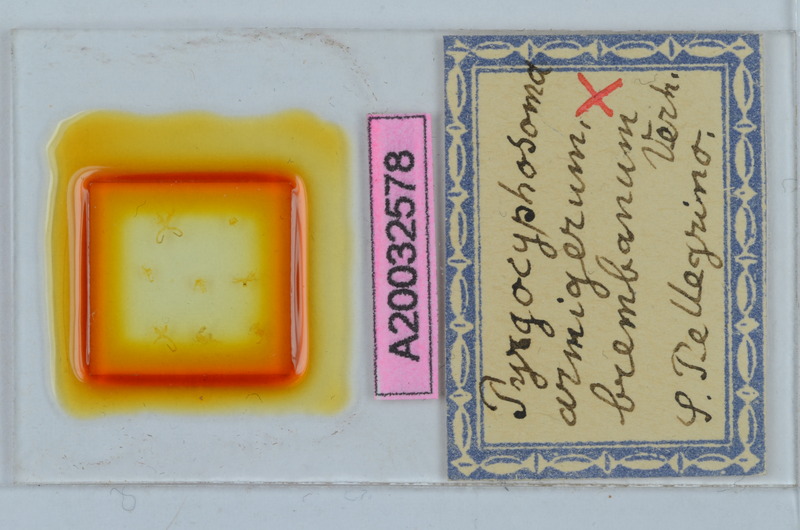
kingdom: Animalia
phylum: Arthropoda
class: Diplopoda
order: Chordeumatida
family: Craspedosomatidae
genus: Pyrgocyphosoma
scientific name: Pyrgocyphosoma brembanum
